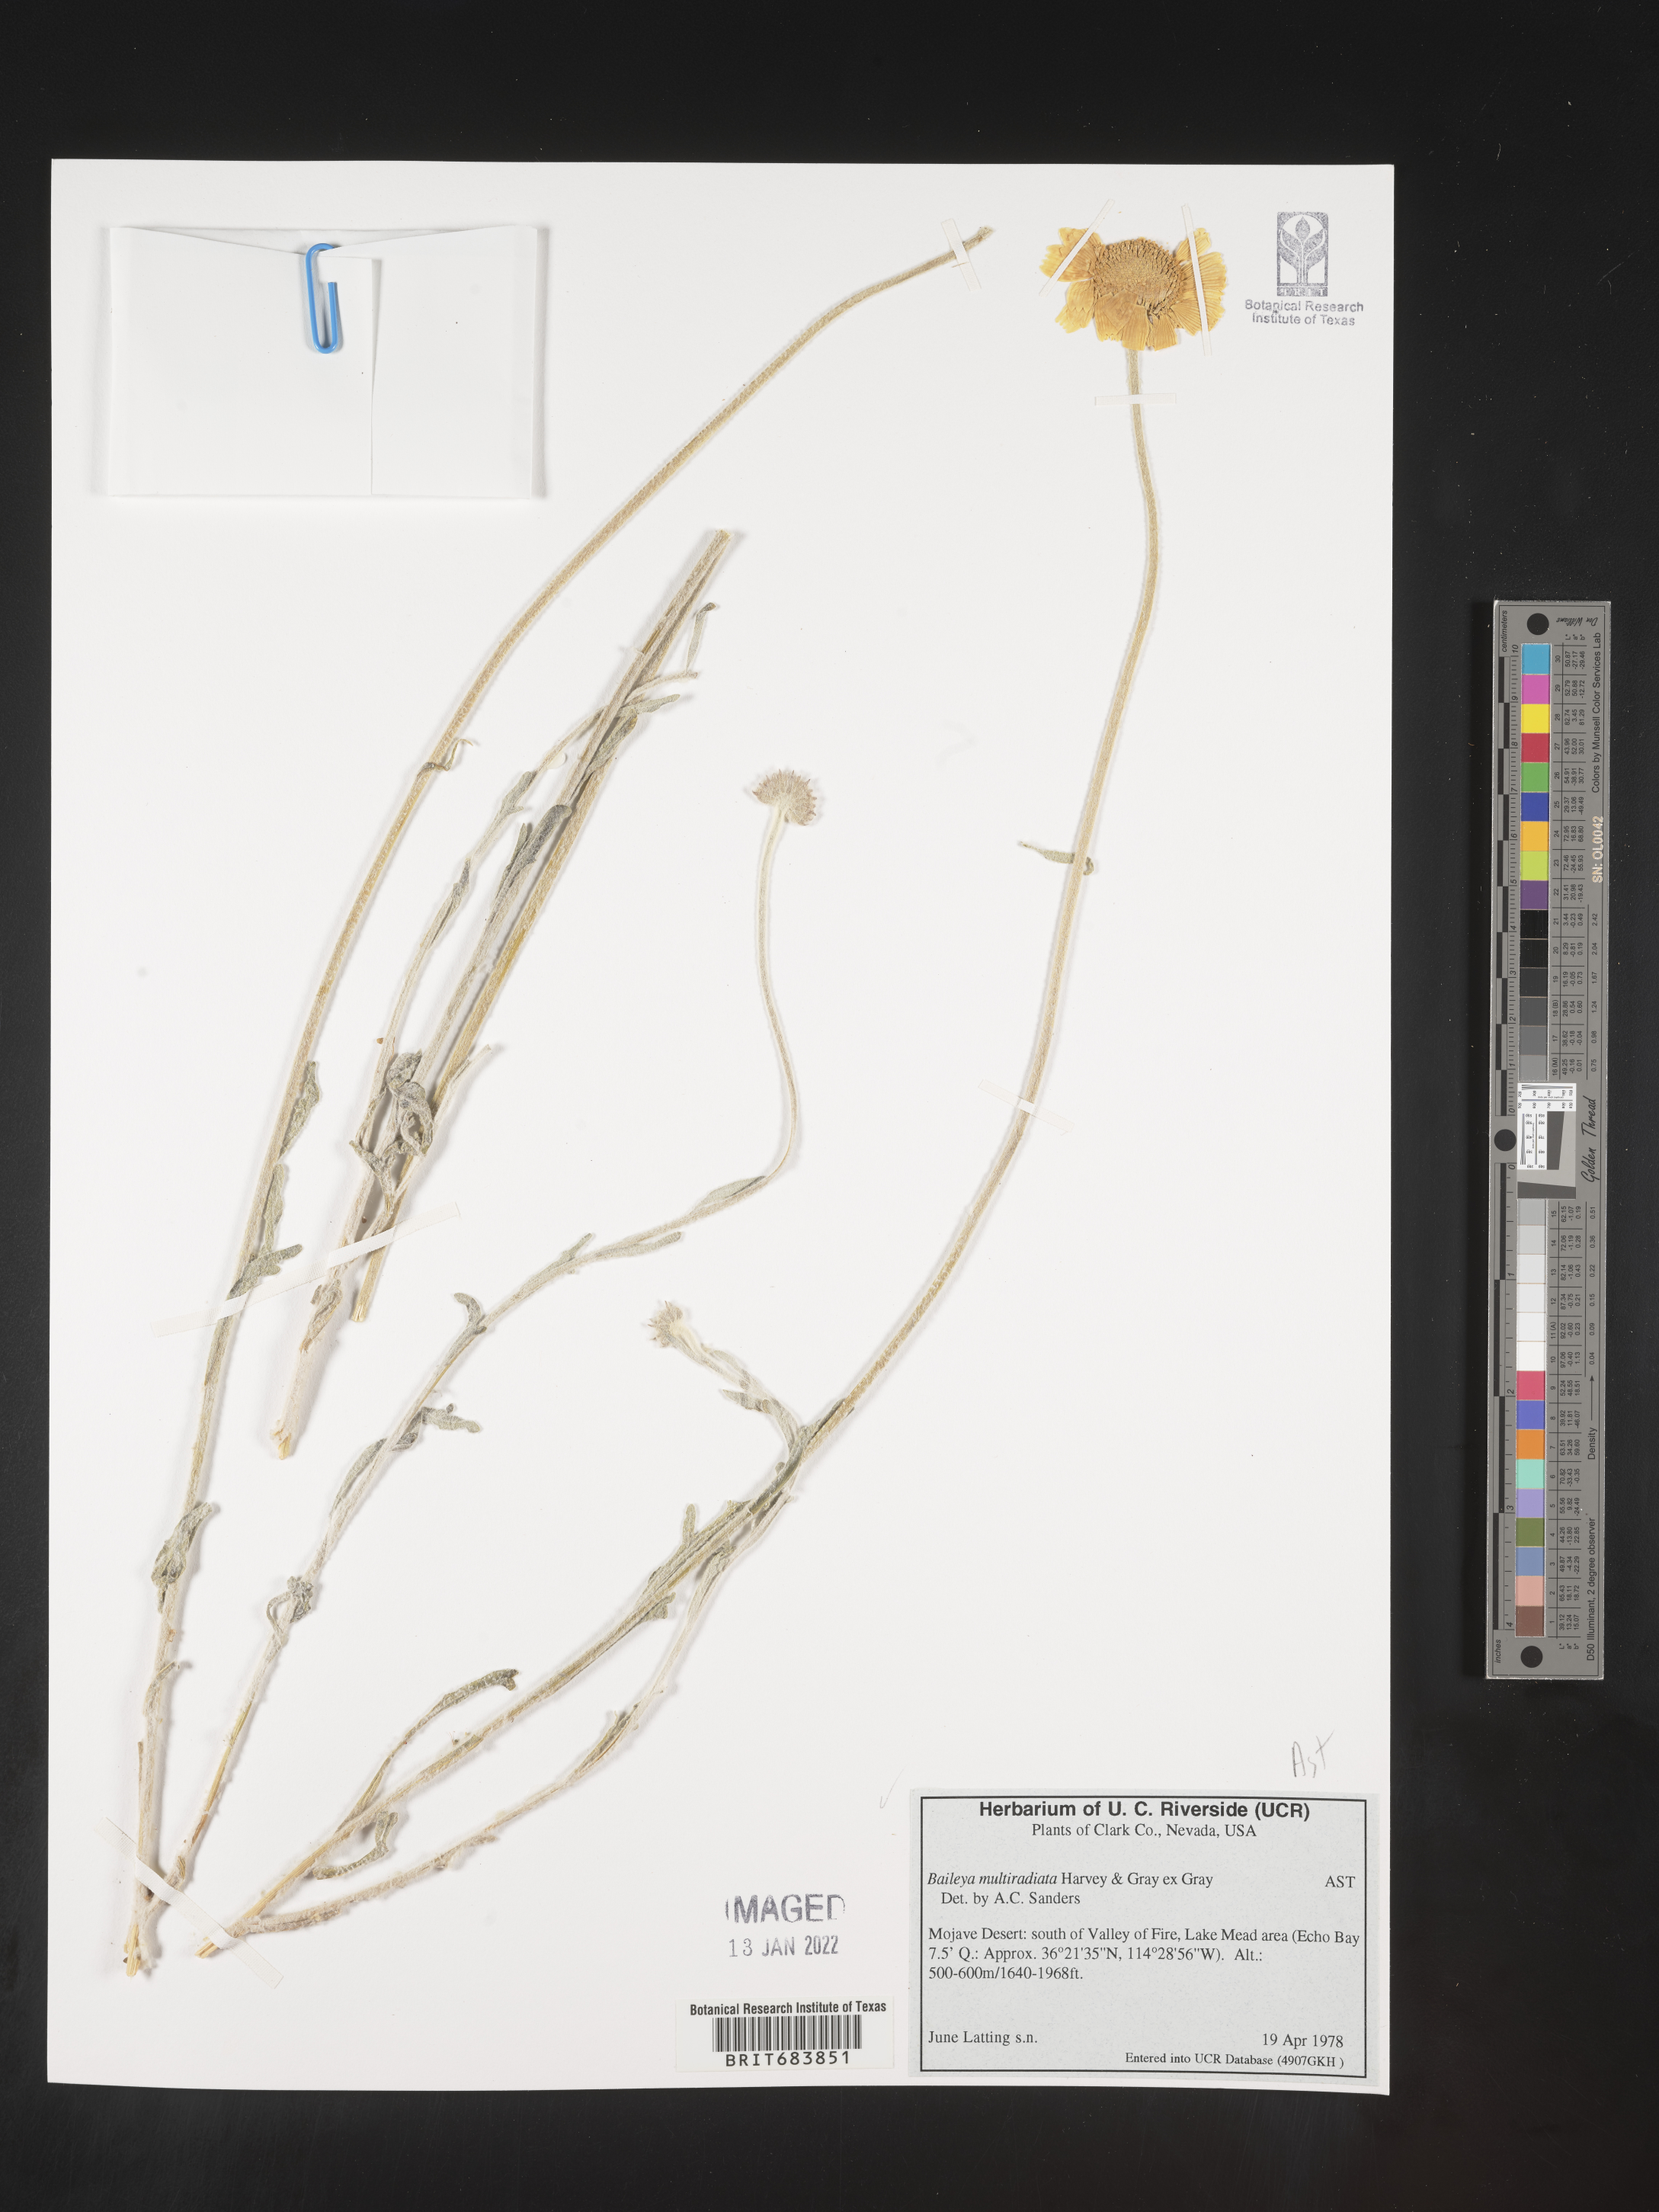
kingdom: Plantae
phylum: Tracheophyta
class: Magnoliopsida
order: Asterales
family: Asteraceae
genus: Baileya
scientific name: Baileya multiradiata
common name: Desert-marigold
